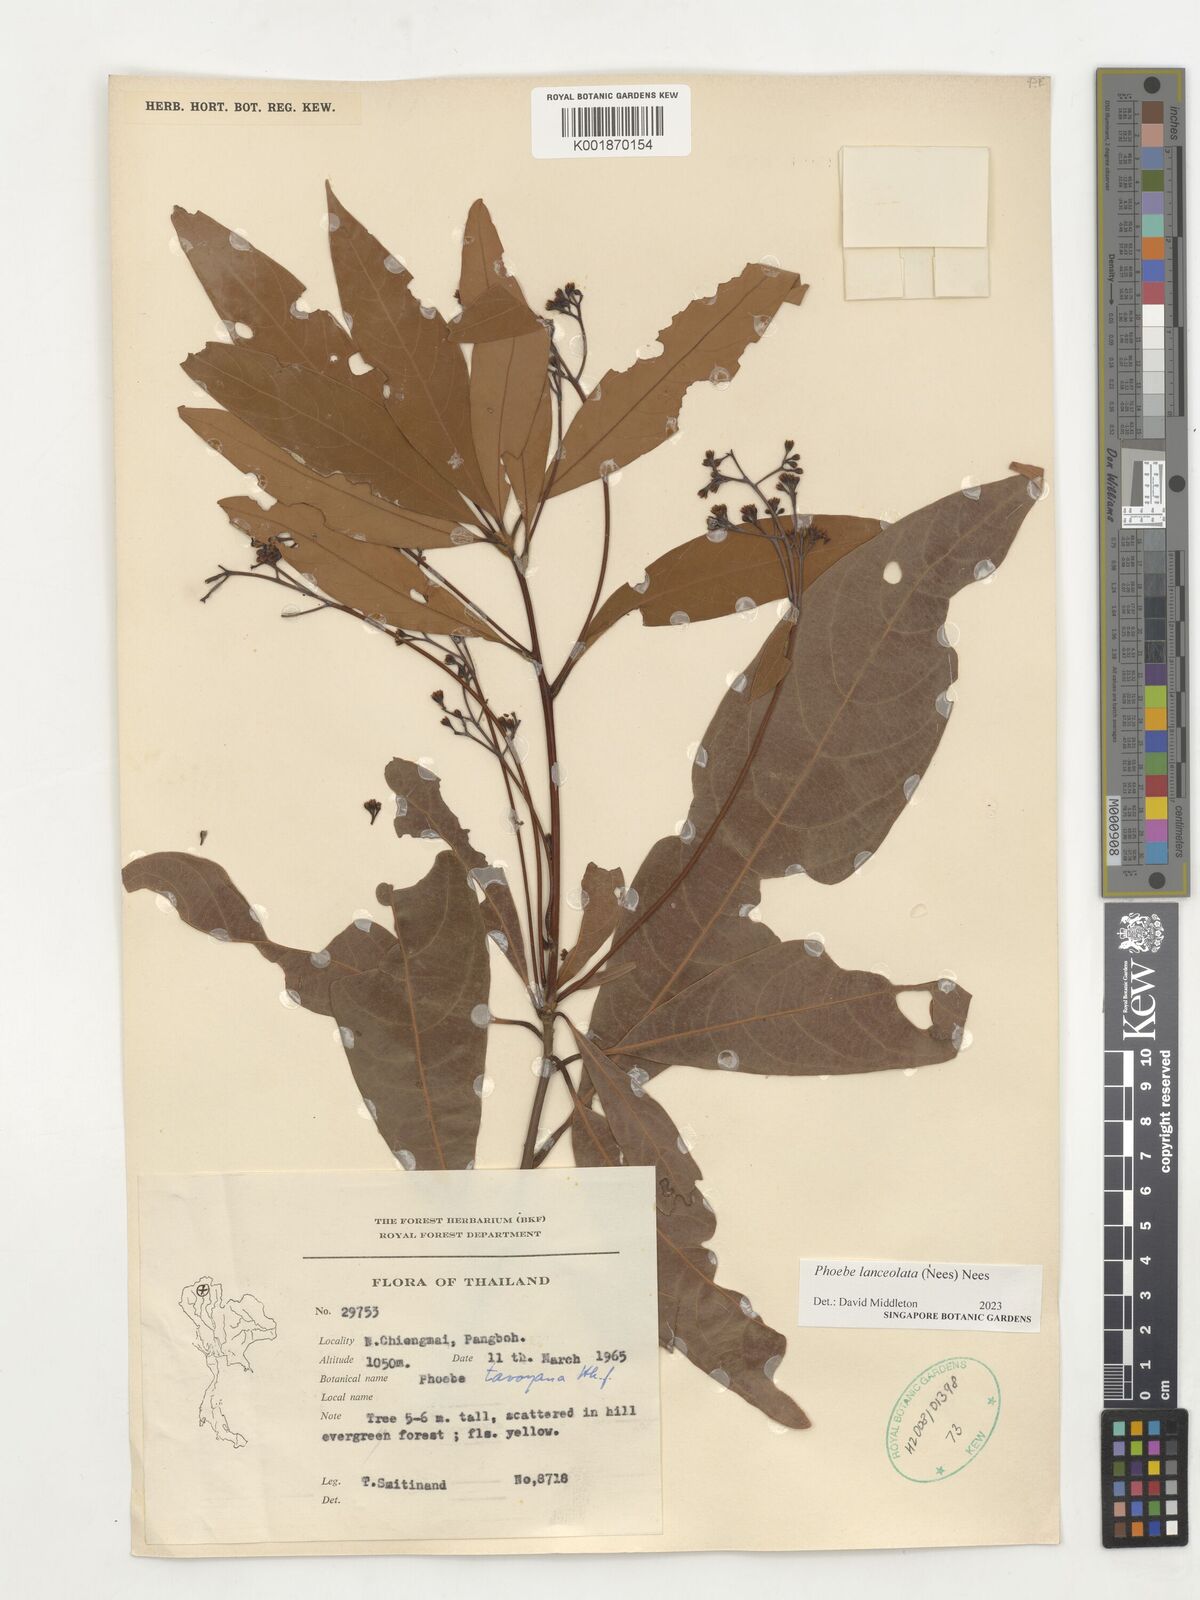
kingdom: Plantae
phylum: Tracheophyta
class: Magnoliopsida
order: Laurales
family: Lauraceae
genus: Phoebe
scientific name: Phoebe lanceolata
